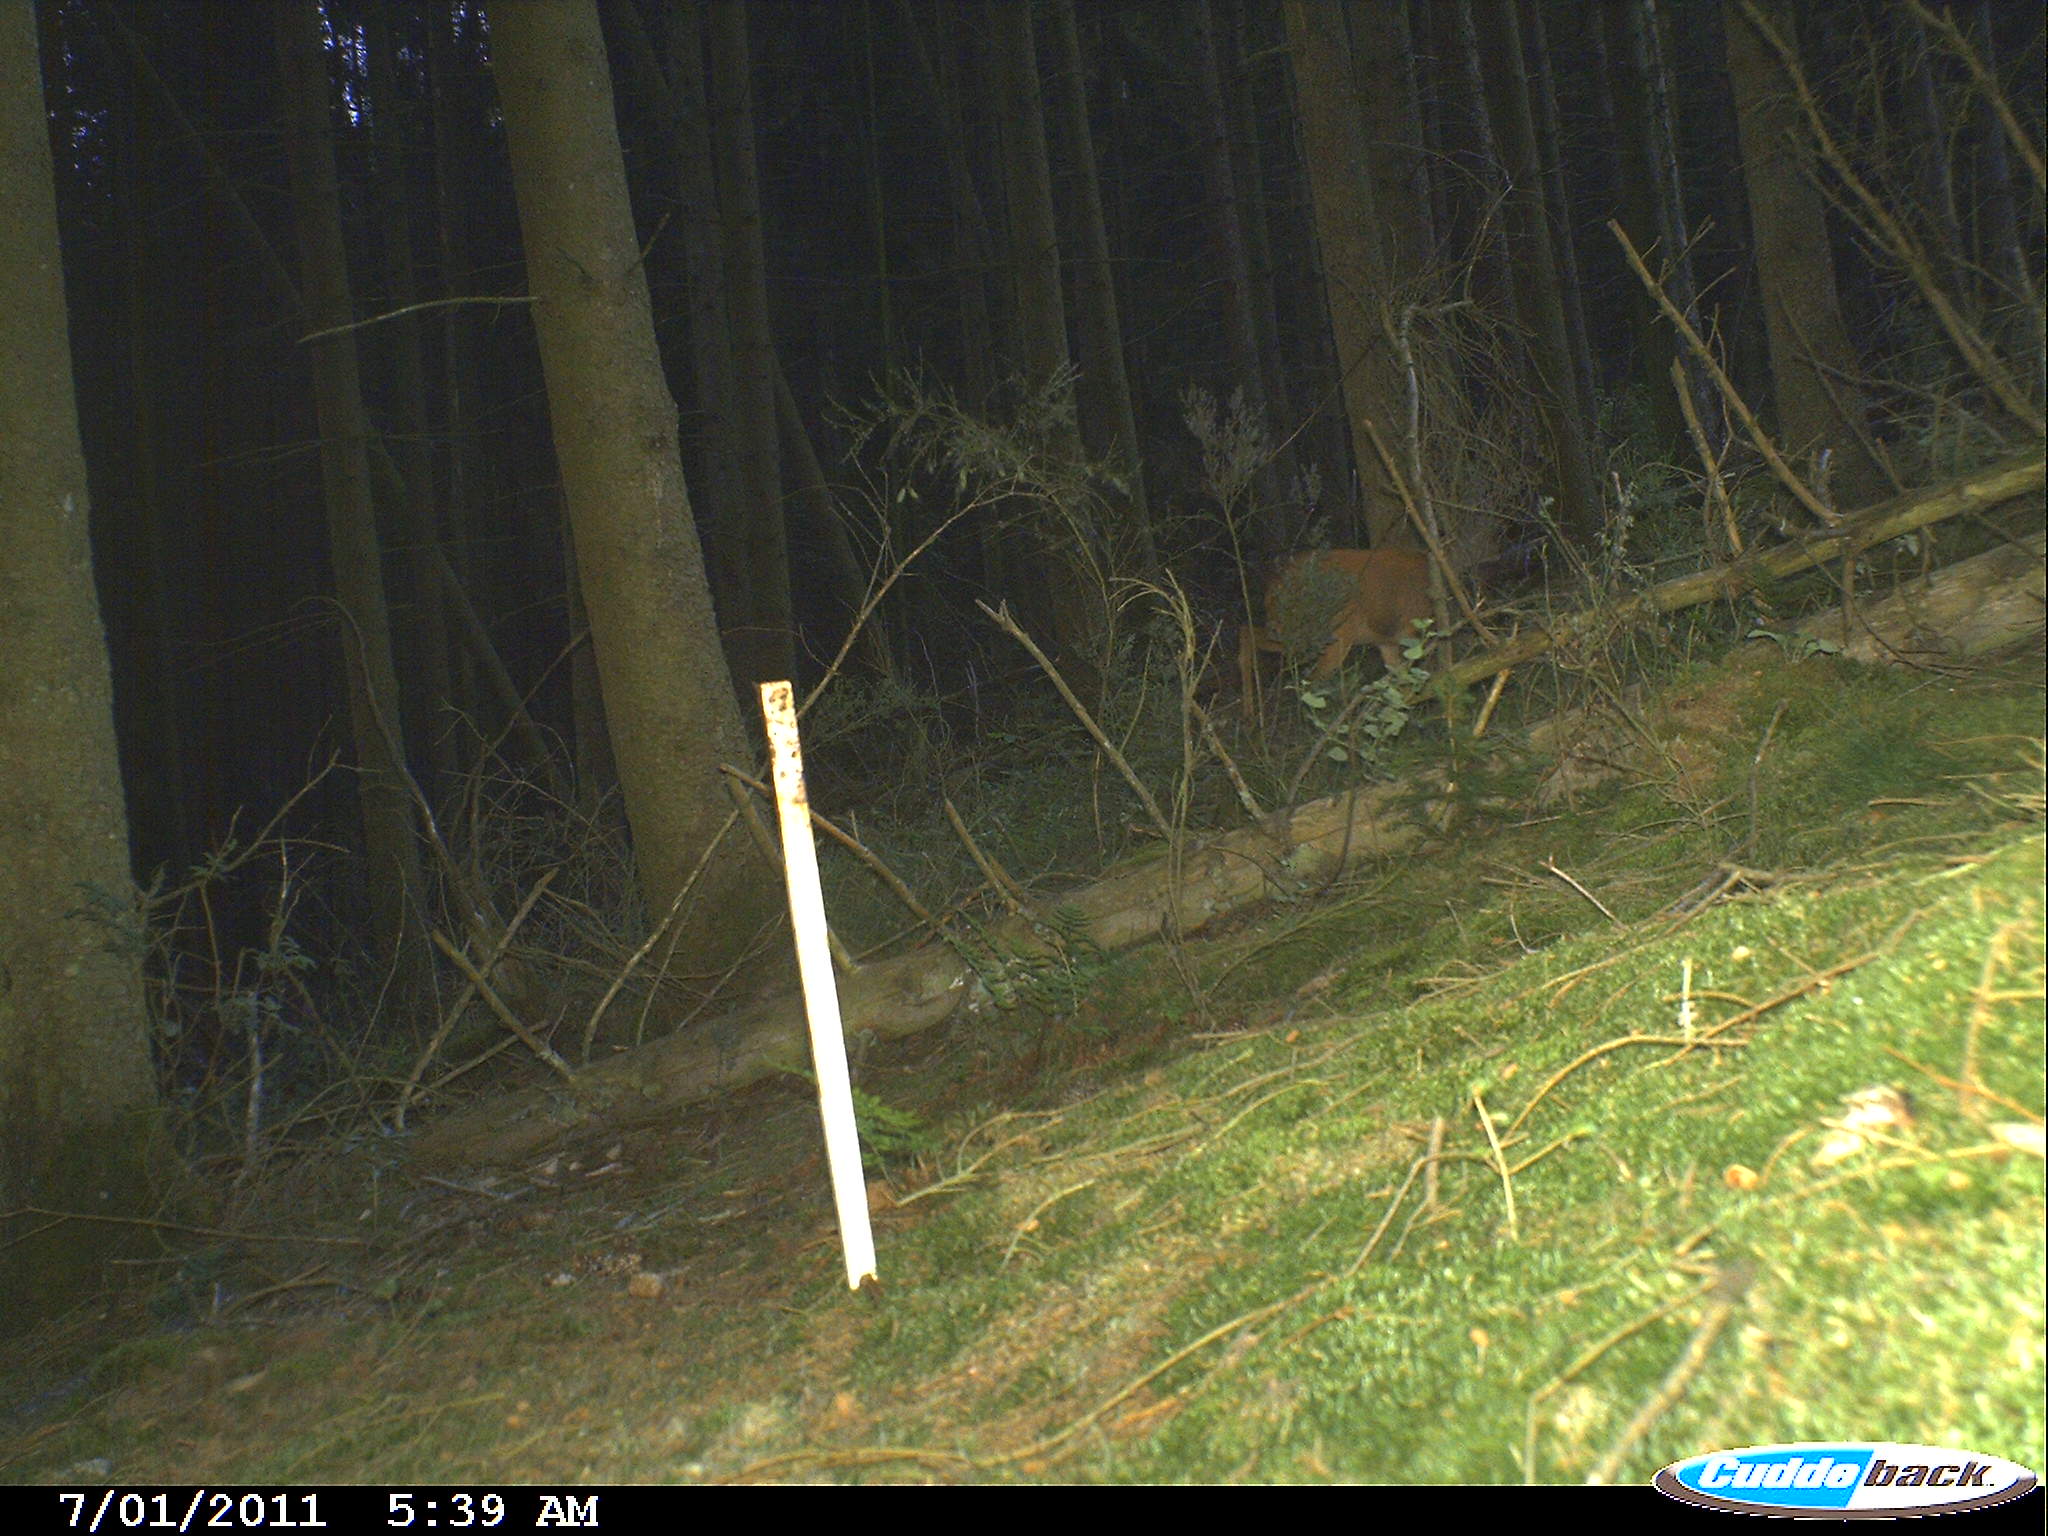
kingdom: Animalia
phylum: Chordata
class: Mammalia
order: Artiodactyla
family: Cervidae
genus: Capreolus
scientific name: Capreolus capreolus
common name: Western roe deer
